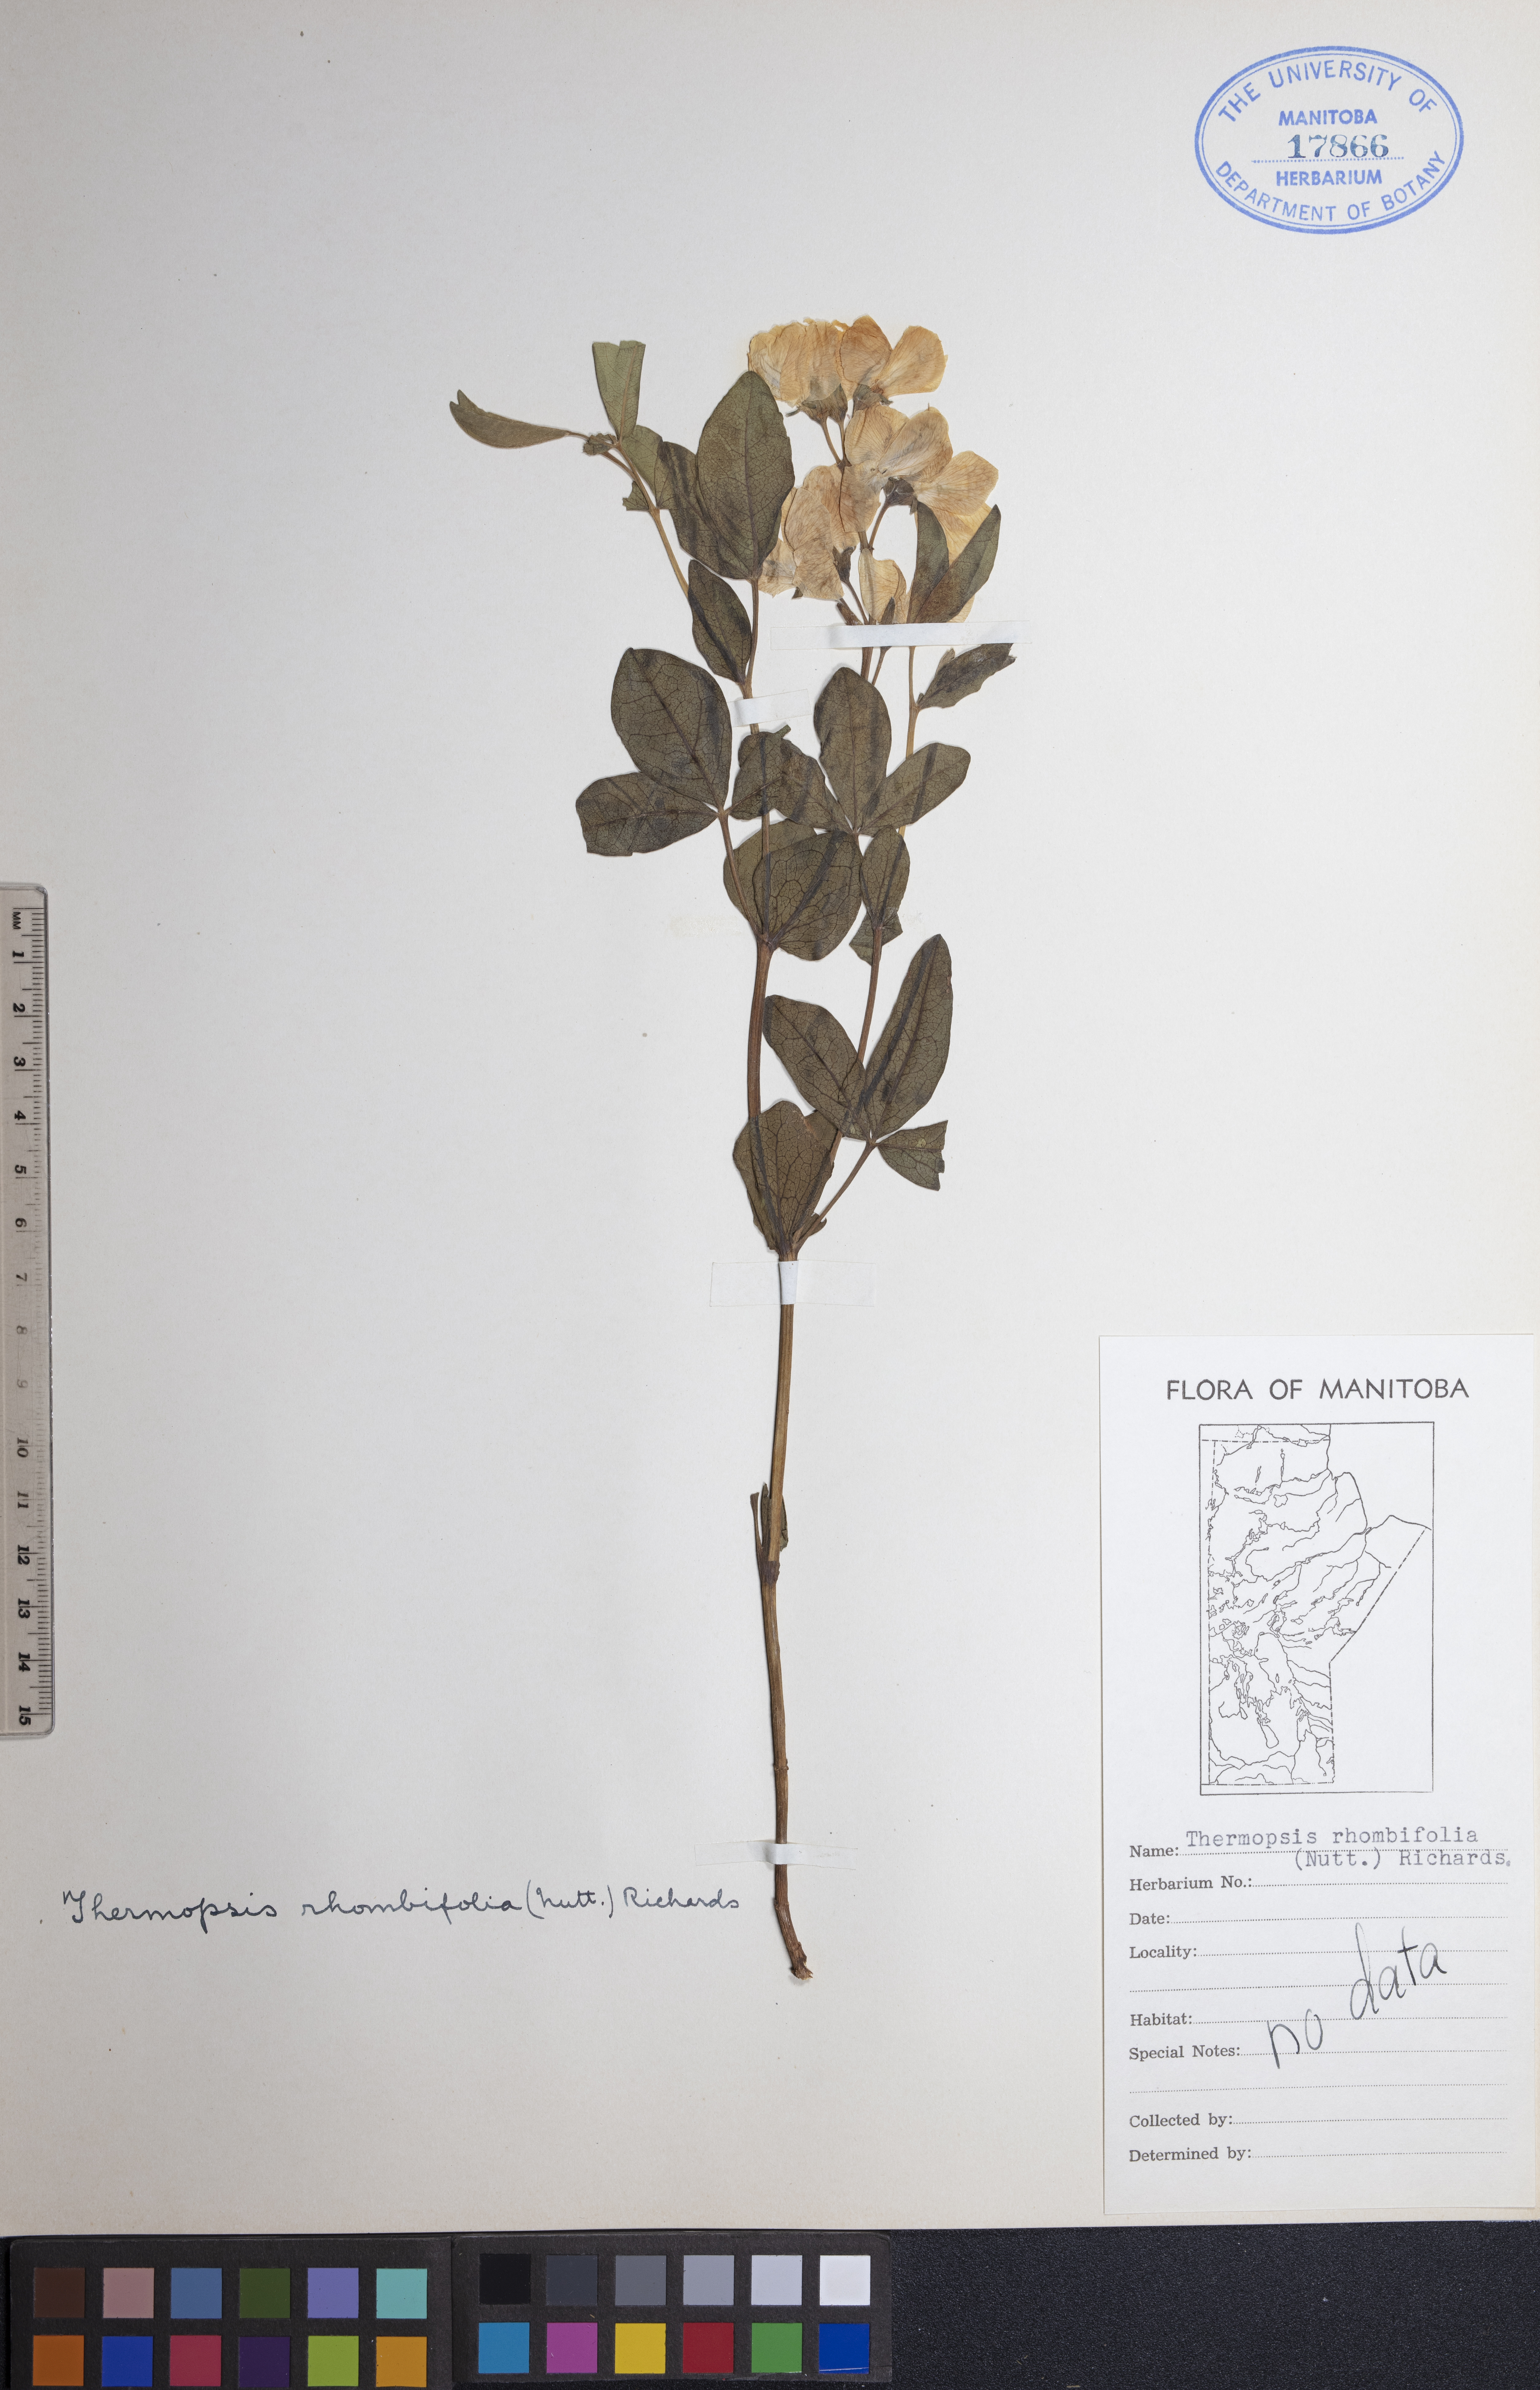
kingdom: Plantae
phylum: Tracheophyta
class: Magnoliopsida
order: Fabales
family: Fabaceae
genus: Thermopsis
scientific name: Thermopsis rhombifolia
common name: Circle-pod-pea
